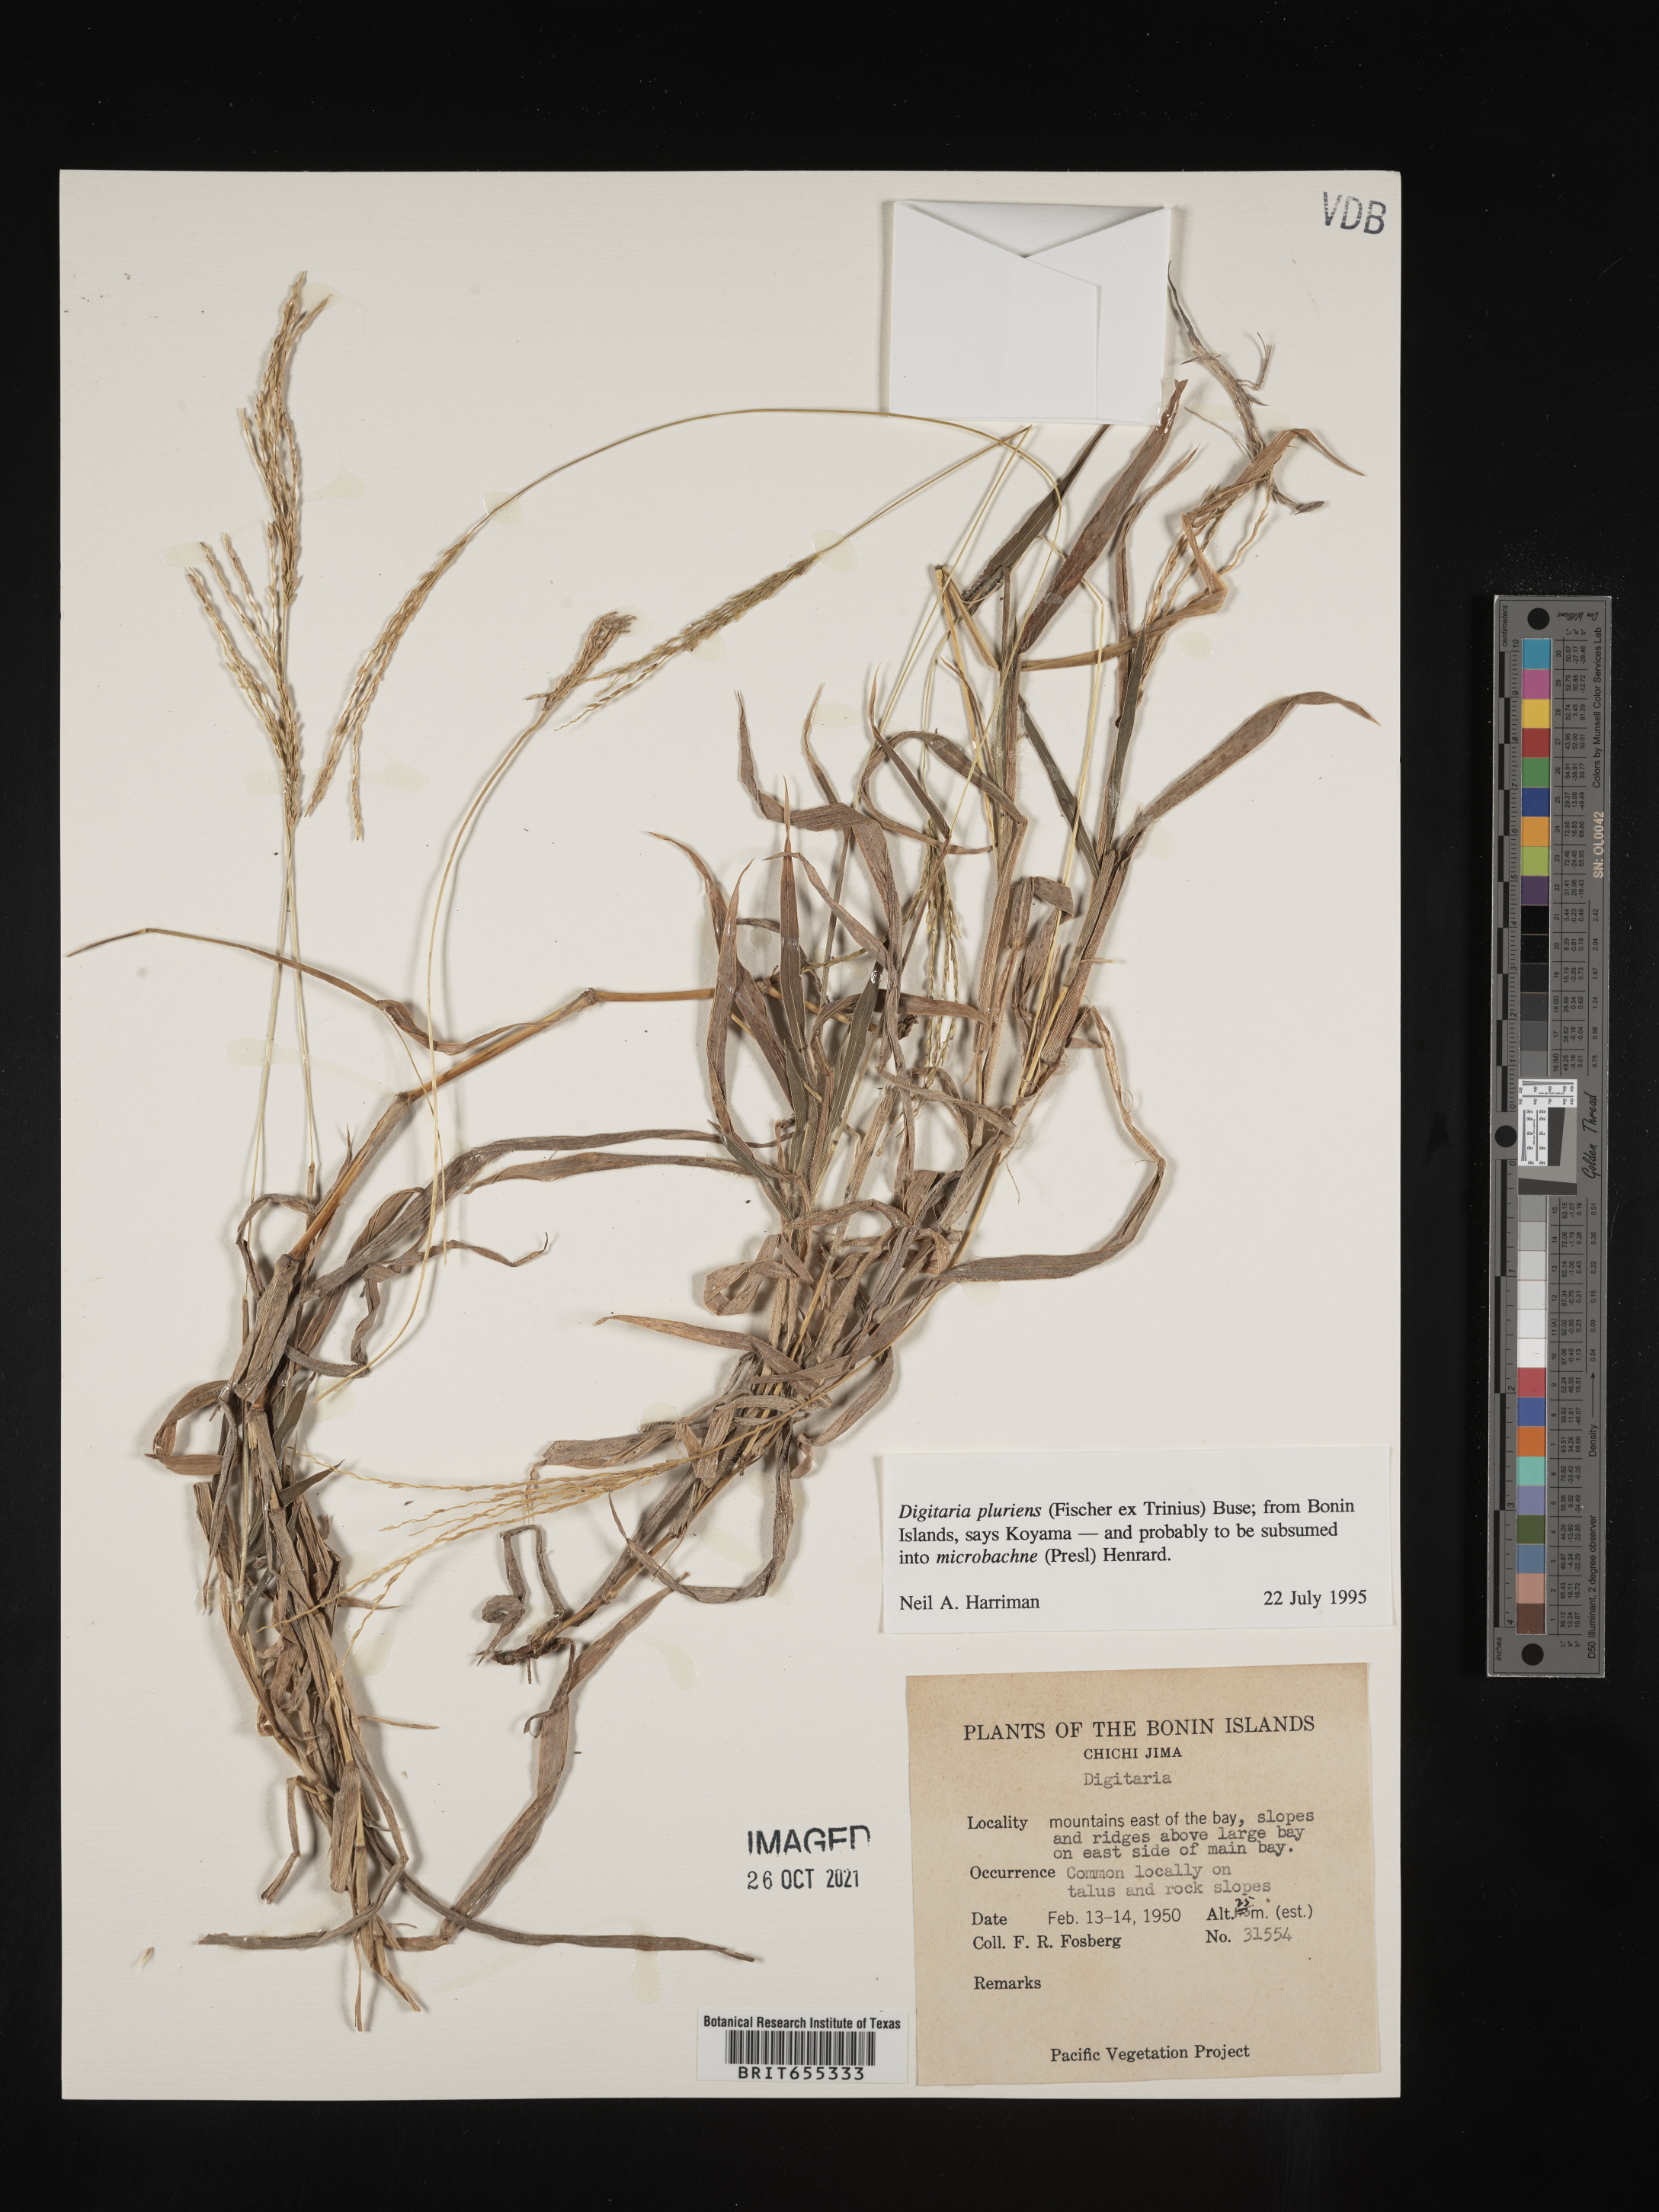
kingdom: Plantae
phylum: Tracheophyta
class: Liliopsida
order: Poales
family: Poaceae
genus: Digitaria
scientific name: Digitaria
